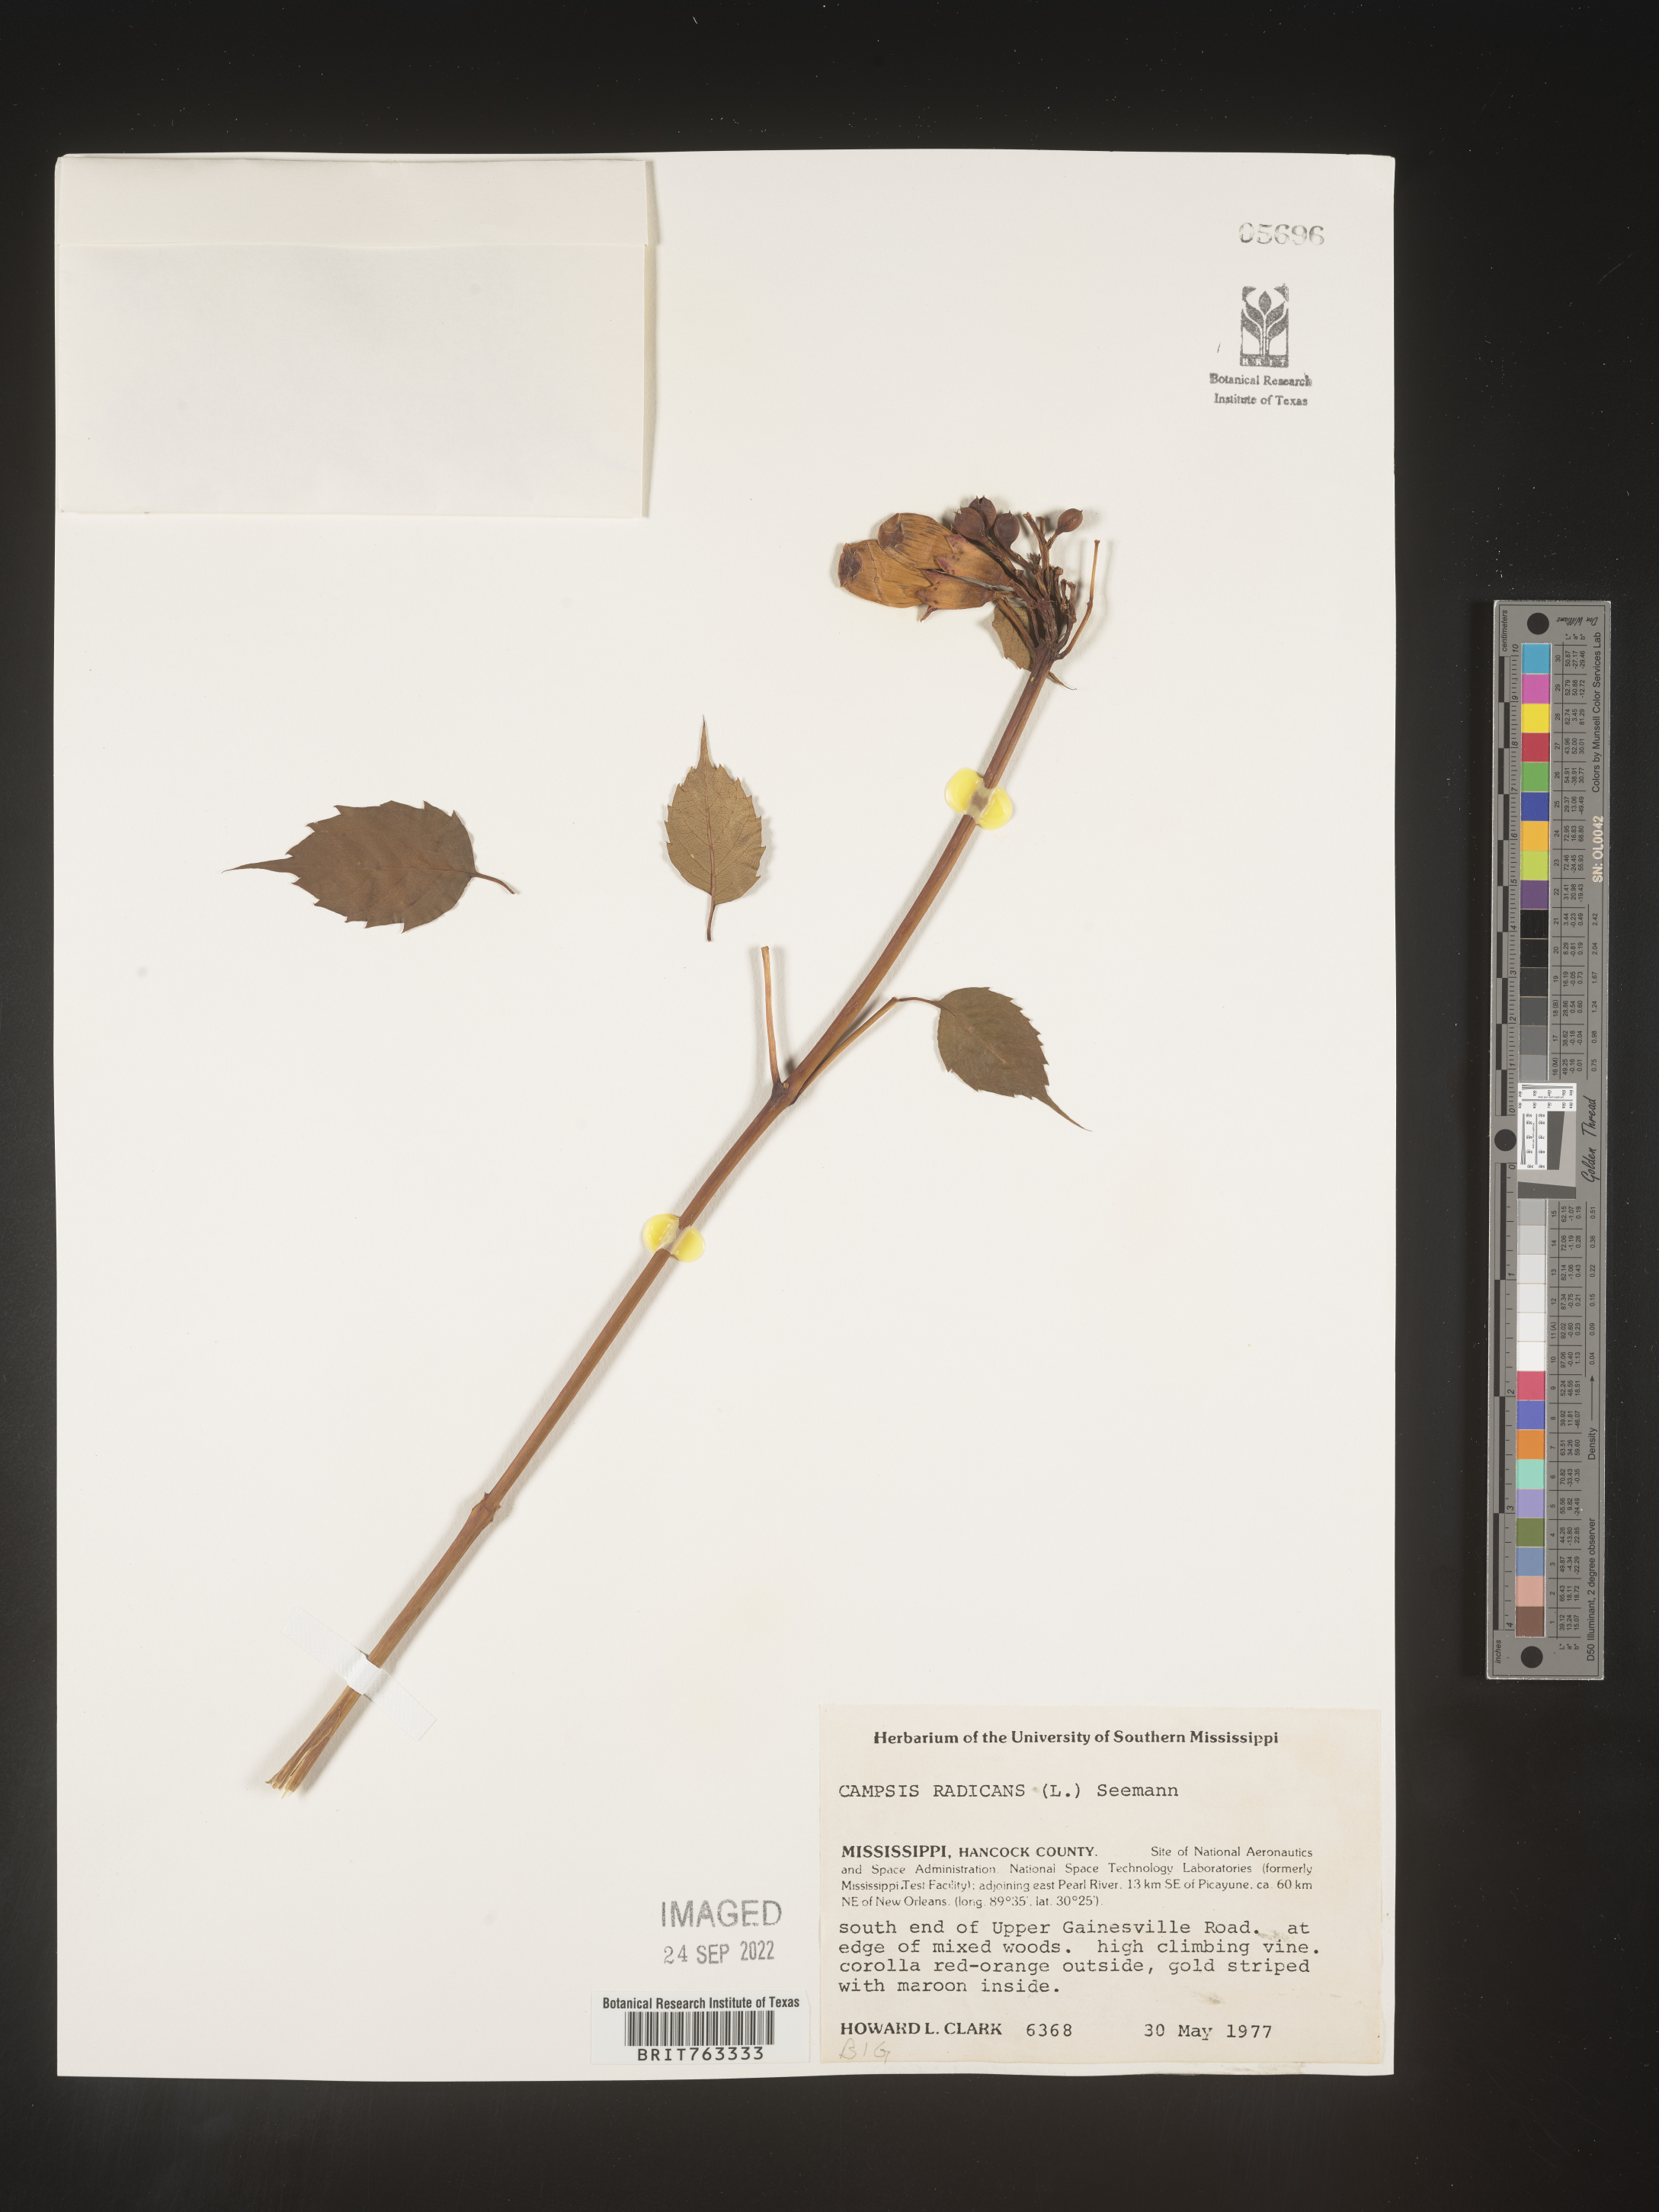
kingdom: Plantae
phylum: Tracheophyta
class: Magnoliopsida
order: Lamiales
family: Bignoniaceae
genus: Campsis
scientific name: Campsis radicans
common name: Trumpet-creeper
